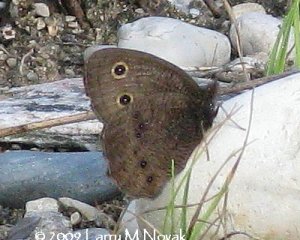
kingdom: Animalia
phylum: Arthropoda
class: Insecta
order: Lepidoptera
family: Nymphalidae
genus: Cercyonis
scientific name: Cercyonis pegala
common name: Common Wood-Nymph
